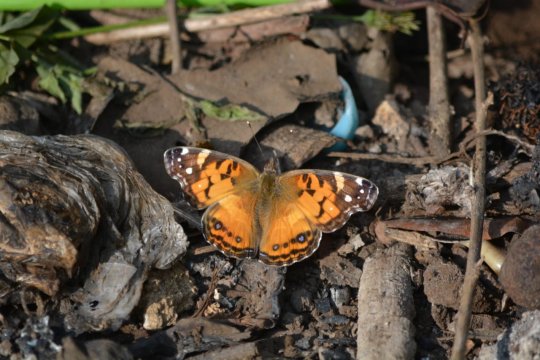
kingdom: Animalia
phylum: Arthropoda
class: Insecta
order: Lepidoptera
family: Nymphalidae
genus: Vanessa
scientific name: Vanessa cardui
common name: Painted Lady
